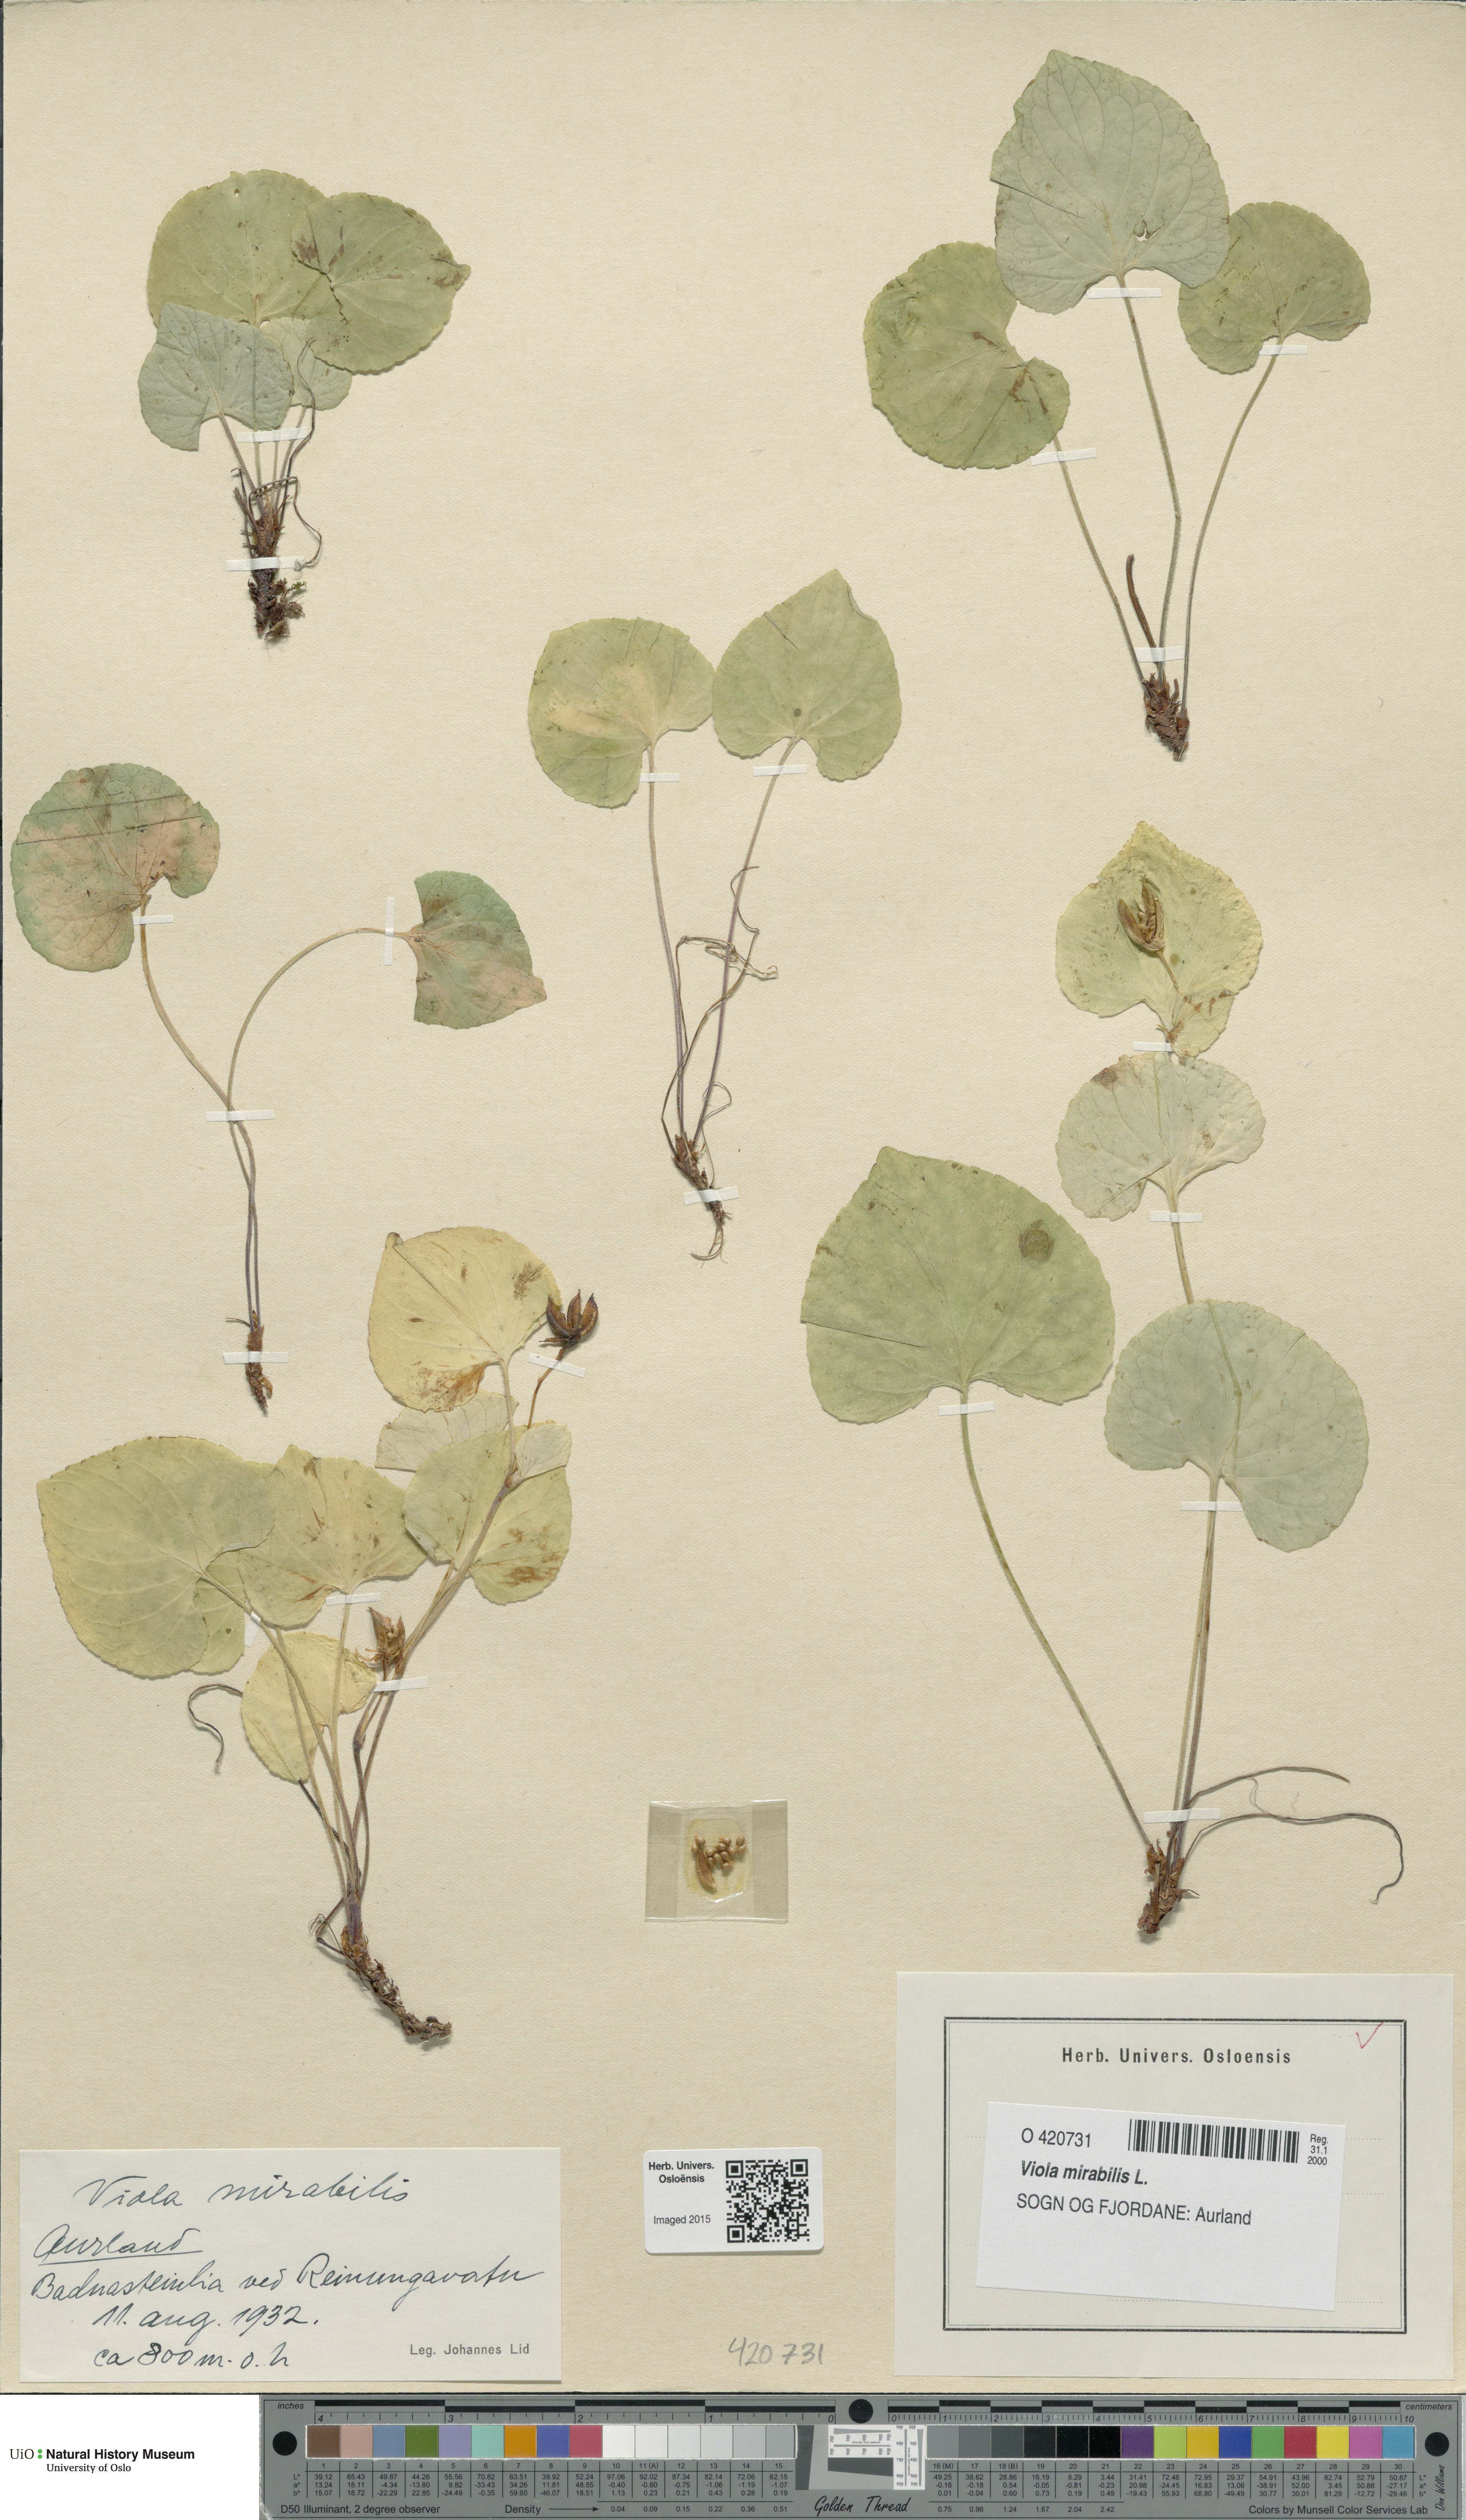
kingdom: Plantae
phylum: Tracheophyta
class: Magnoliopsida
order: Malpighiales
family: Violaceae
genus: Viola
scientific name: Viola mirabilis
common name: Wonder violet
